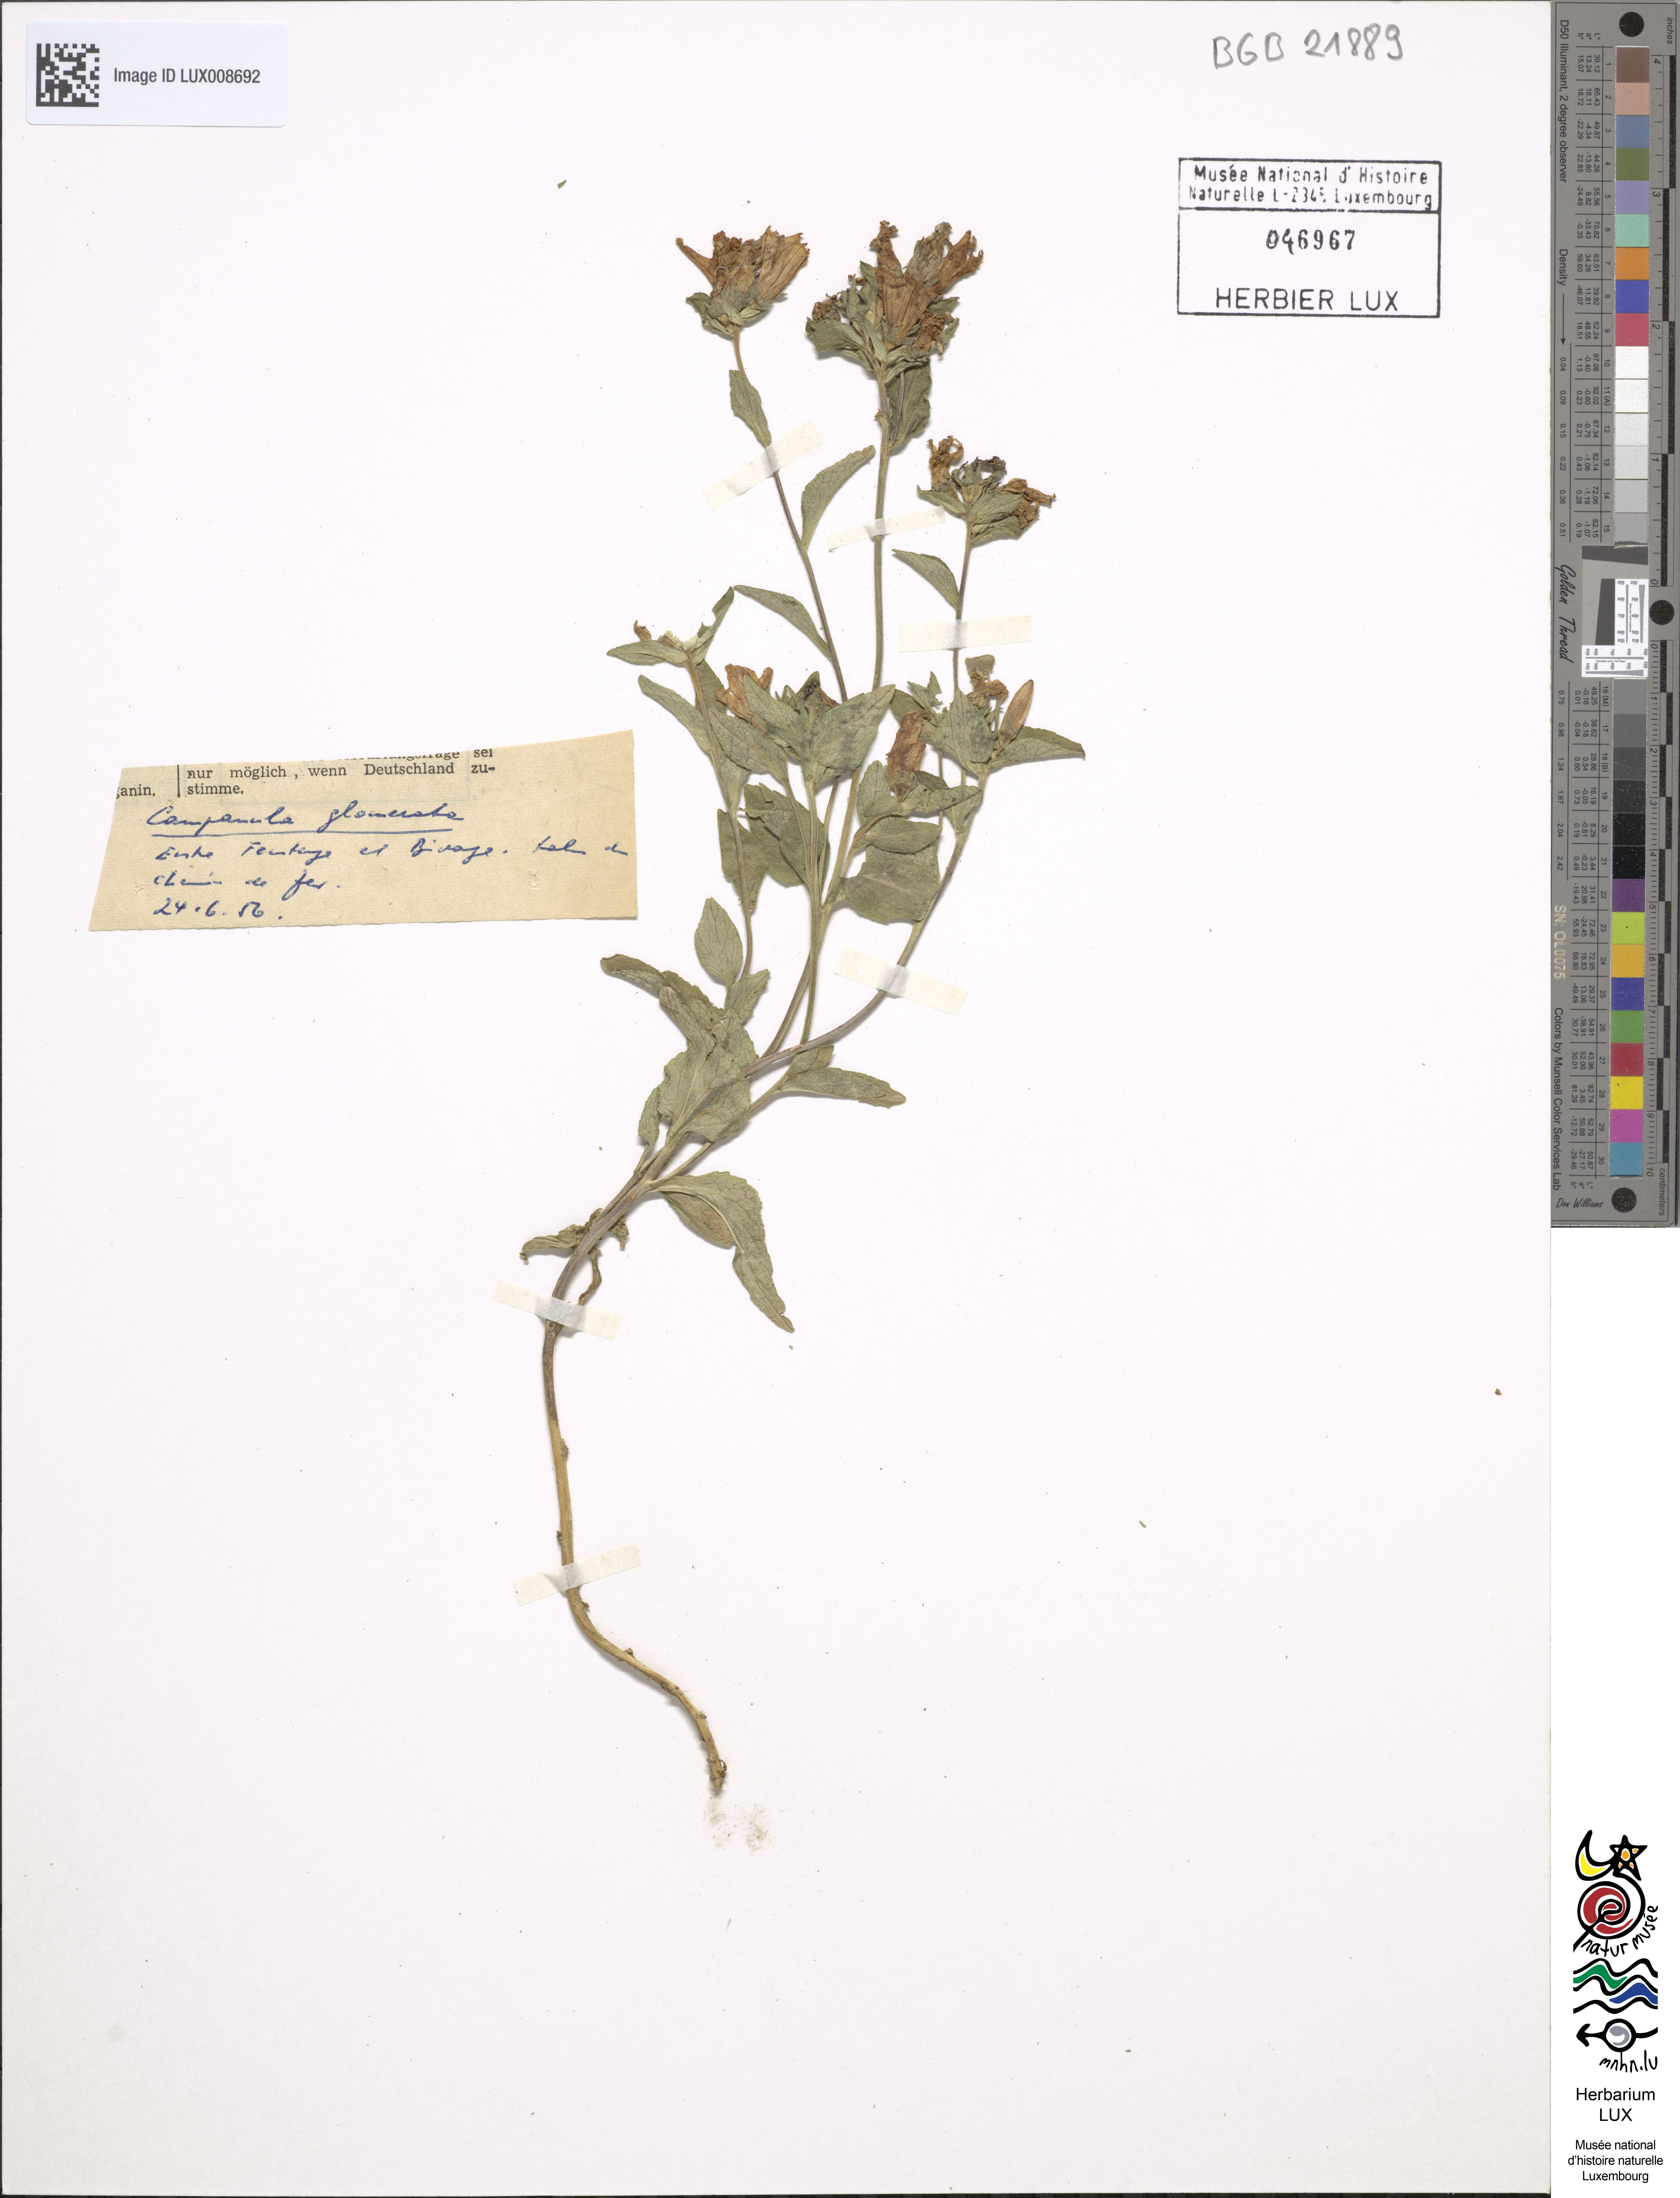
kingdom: Plantae
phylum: Tracheophyta
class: Magnoliopsida
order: Asterales
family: Campanulaceae
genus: Campanula
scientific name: Campanula glomerata
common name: Clustered bellflower
